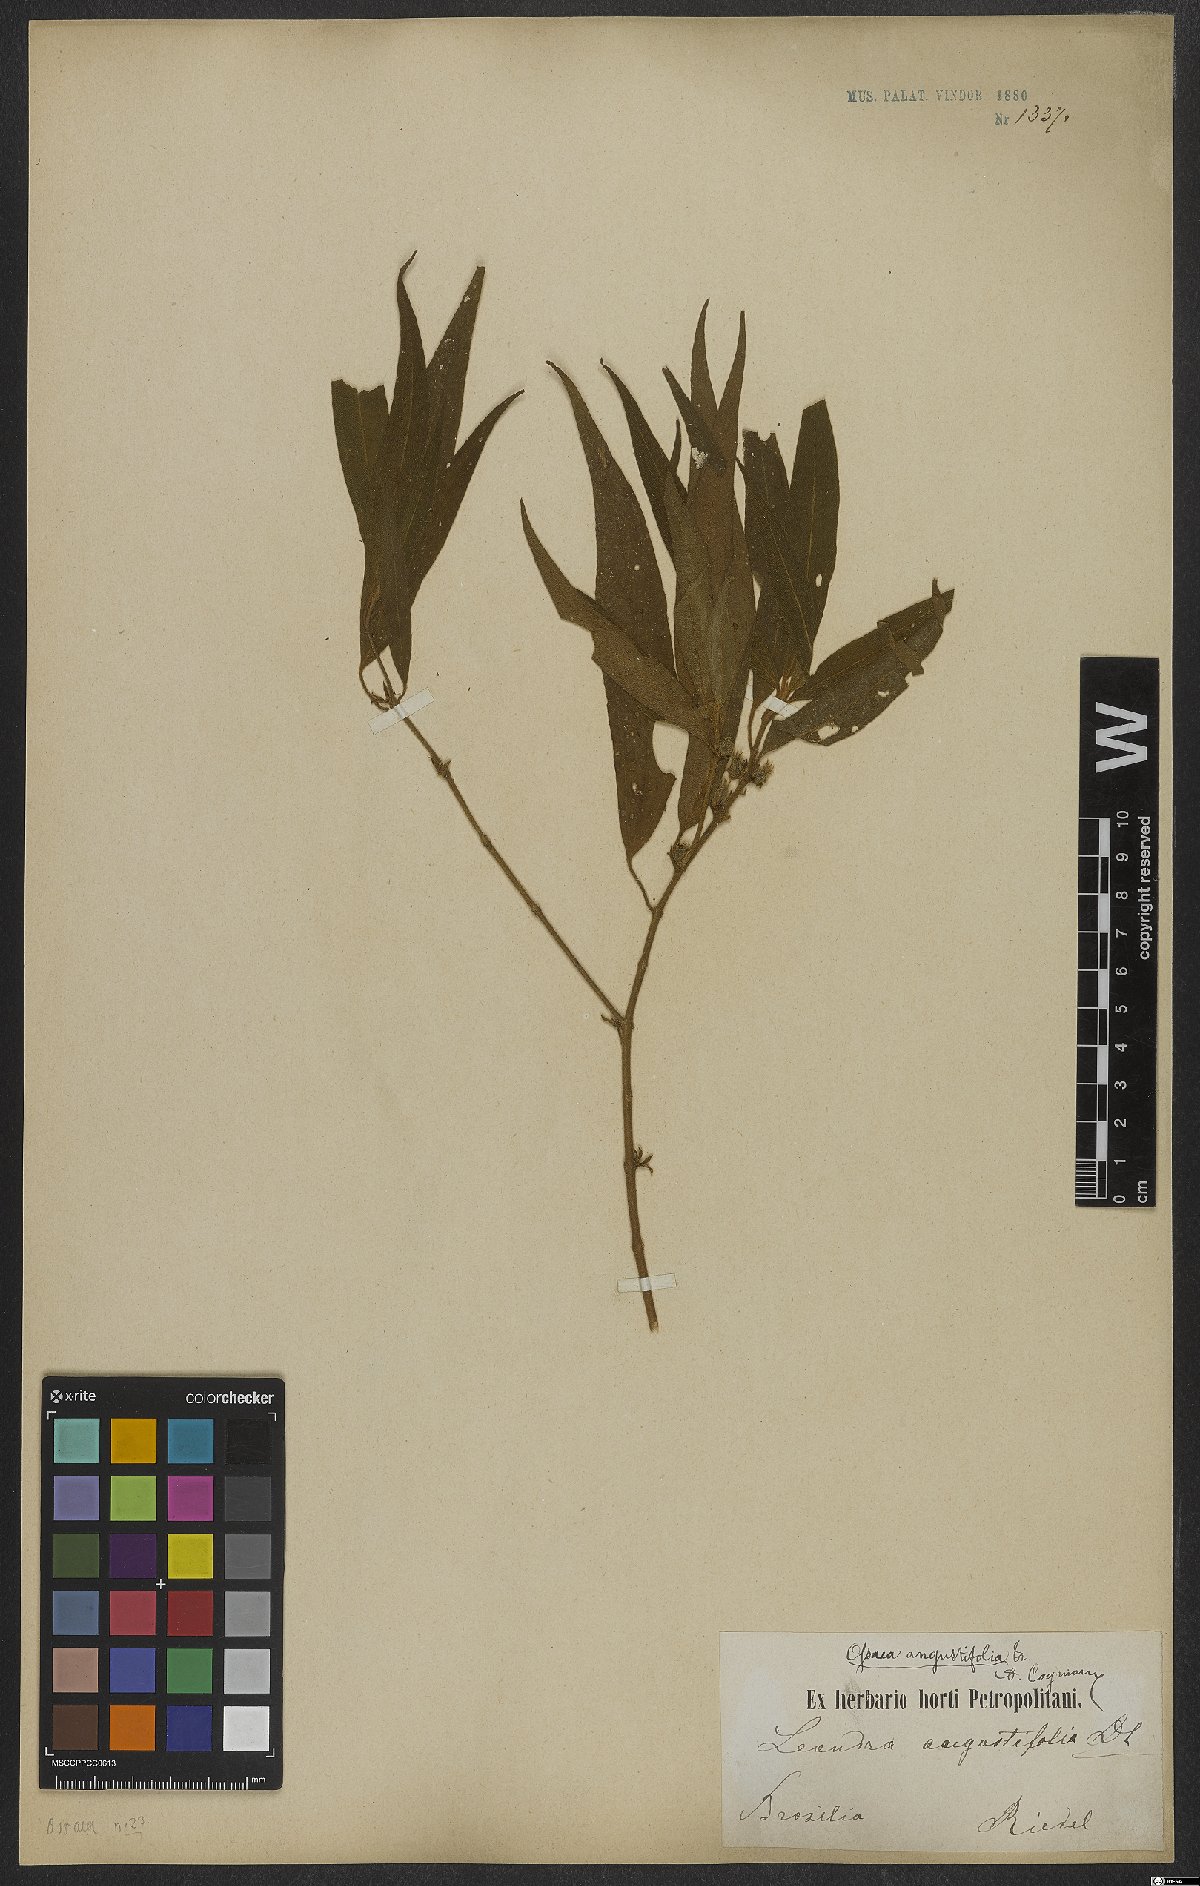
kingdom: Plantae
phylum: Tracheophyta
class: Magnoliopsida
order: Myrtales
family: Melastomataceae
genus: Miconia
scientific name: Miconia corcovadensis
